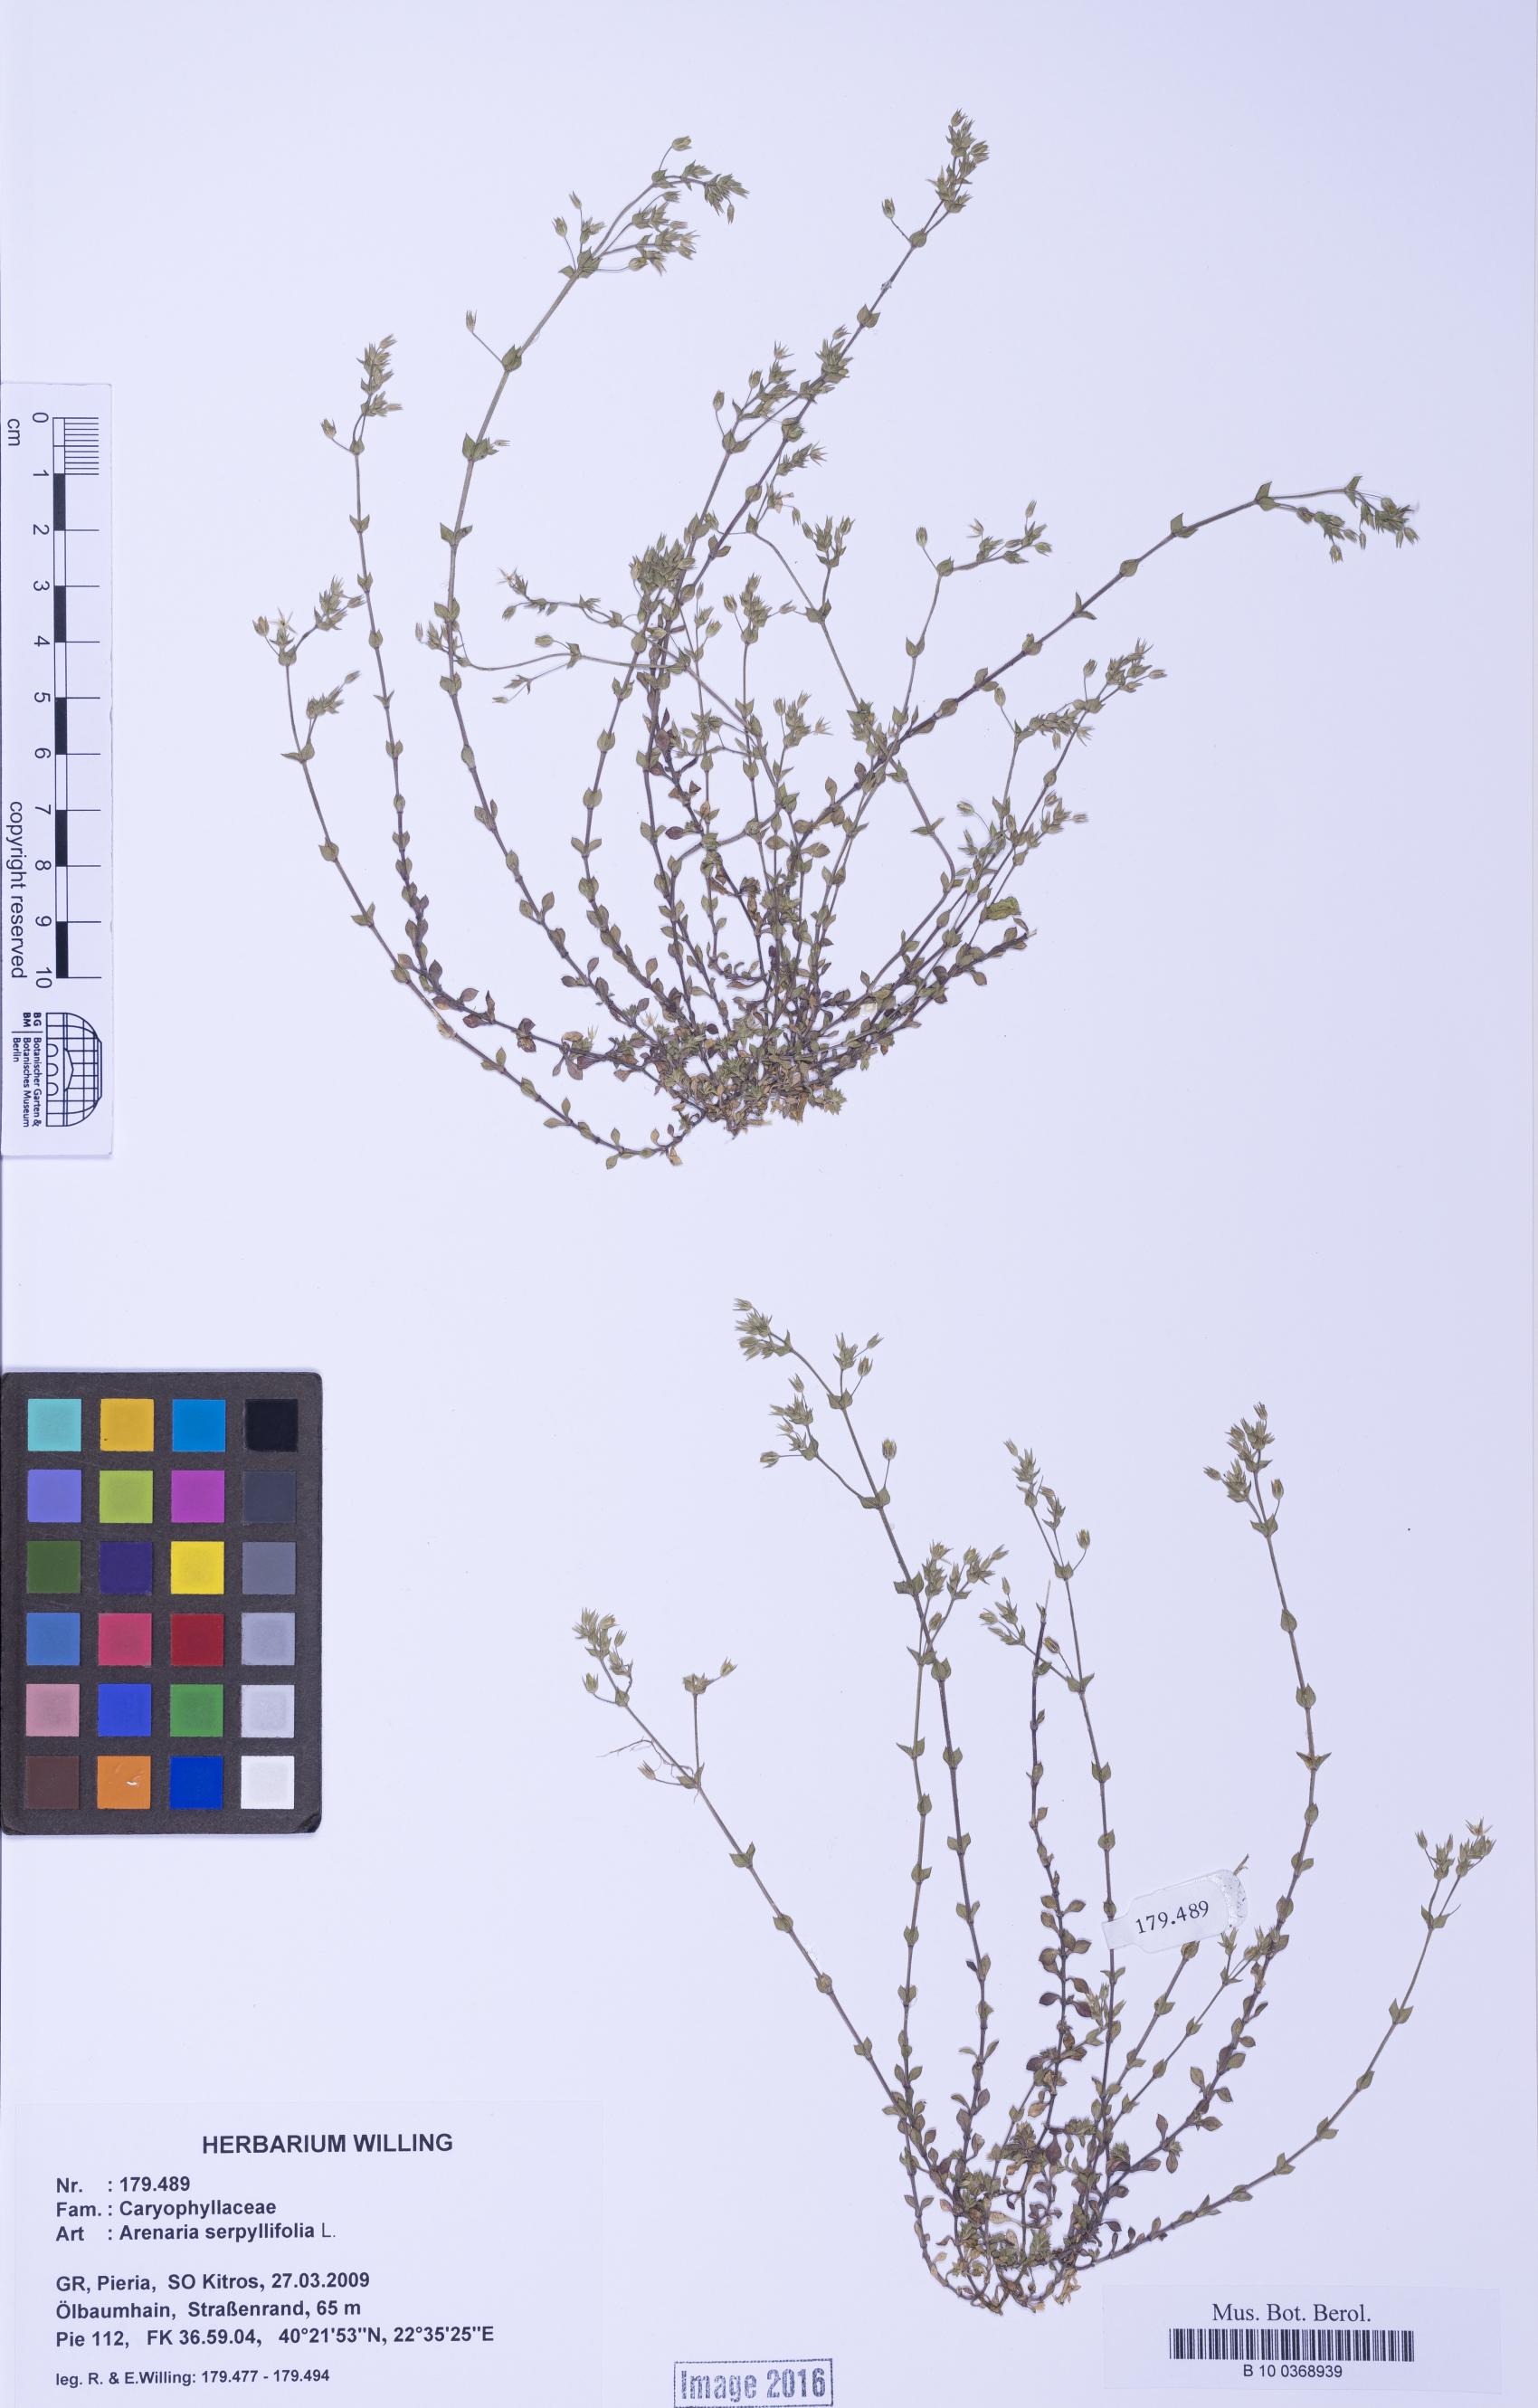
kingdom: Plantae
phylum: Tracheophyta
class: Magnoliopsida
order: Caryophyllales
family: Caryophyllaceae
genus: Arenaria
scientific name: Arenaria serpyllifolia
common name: Thyme-leaved sandwort
